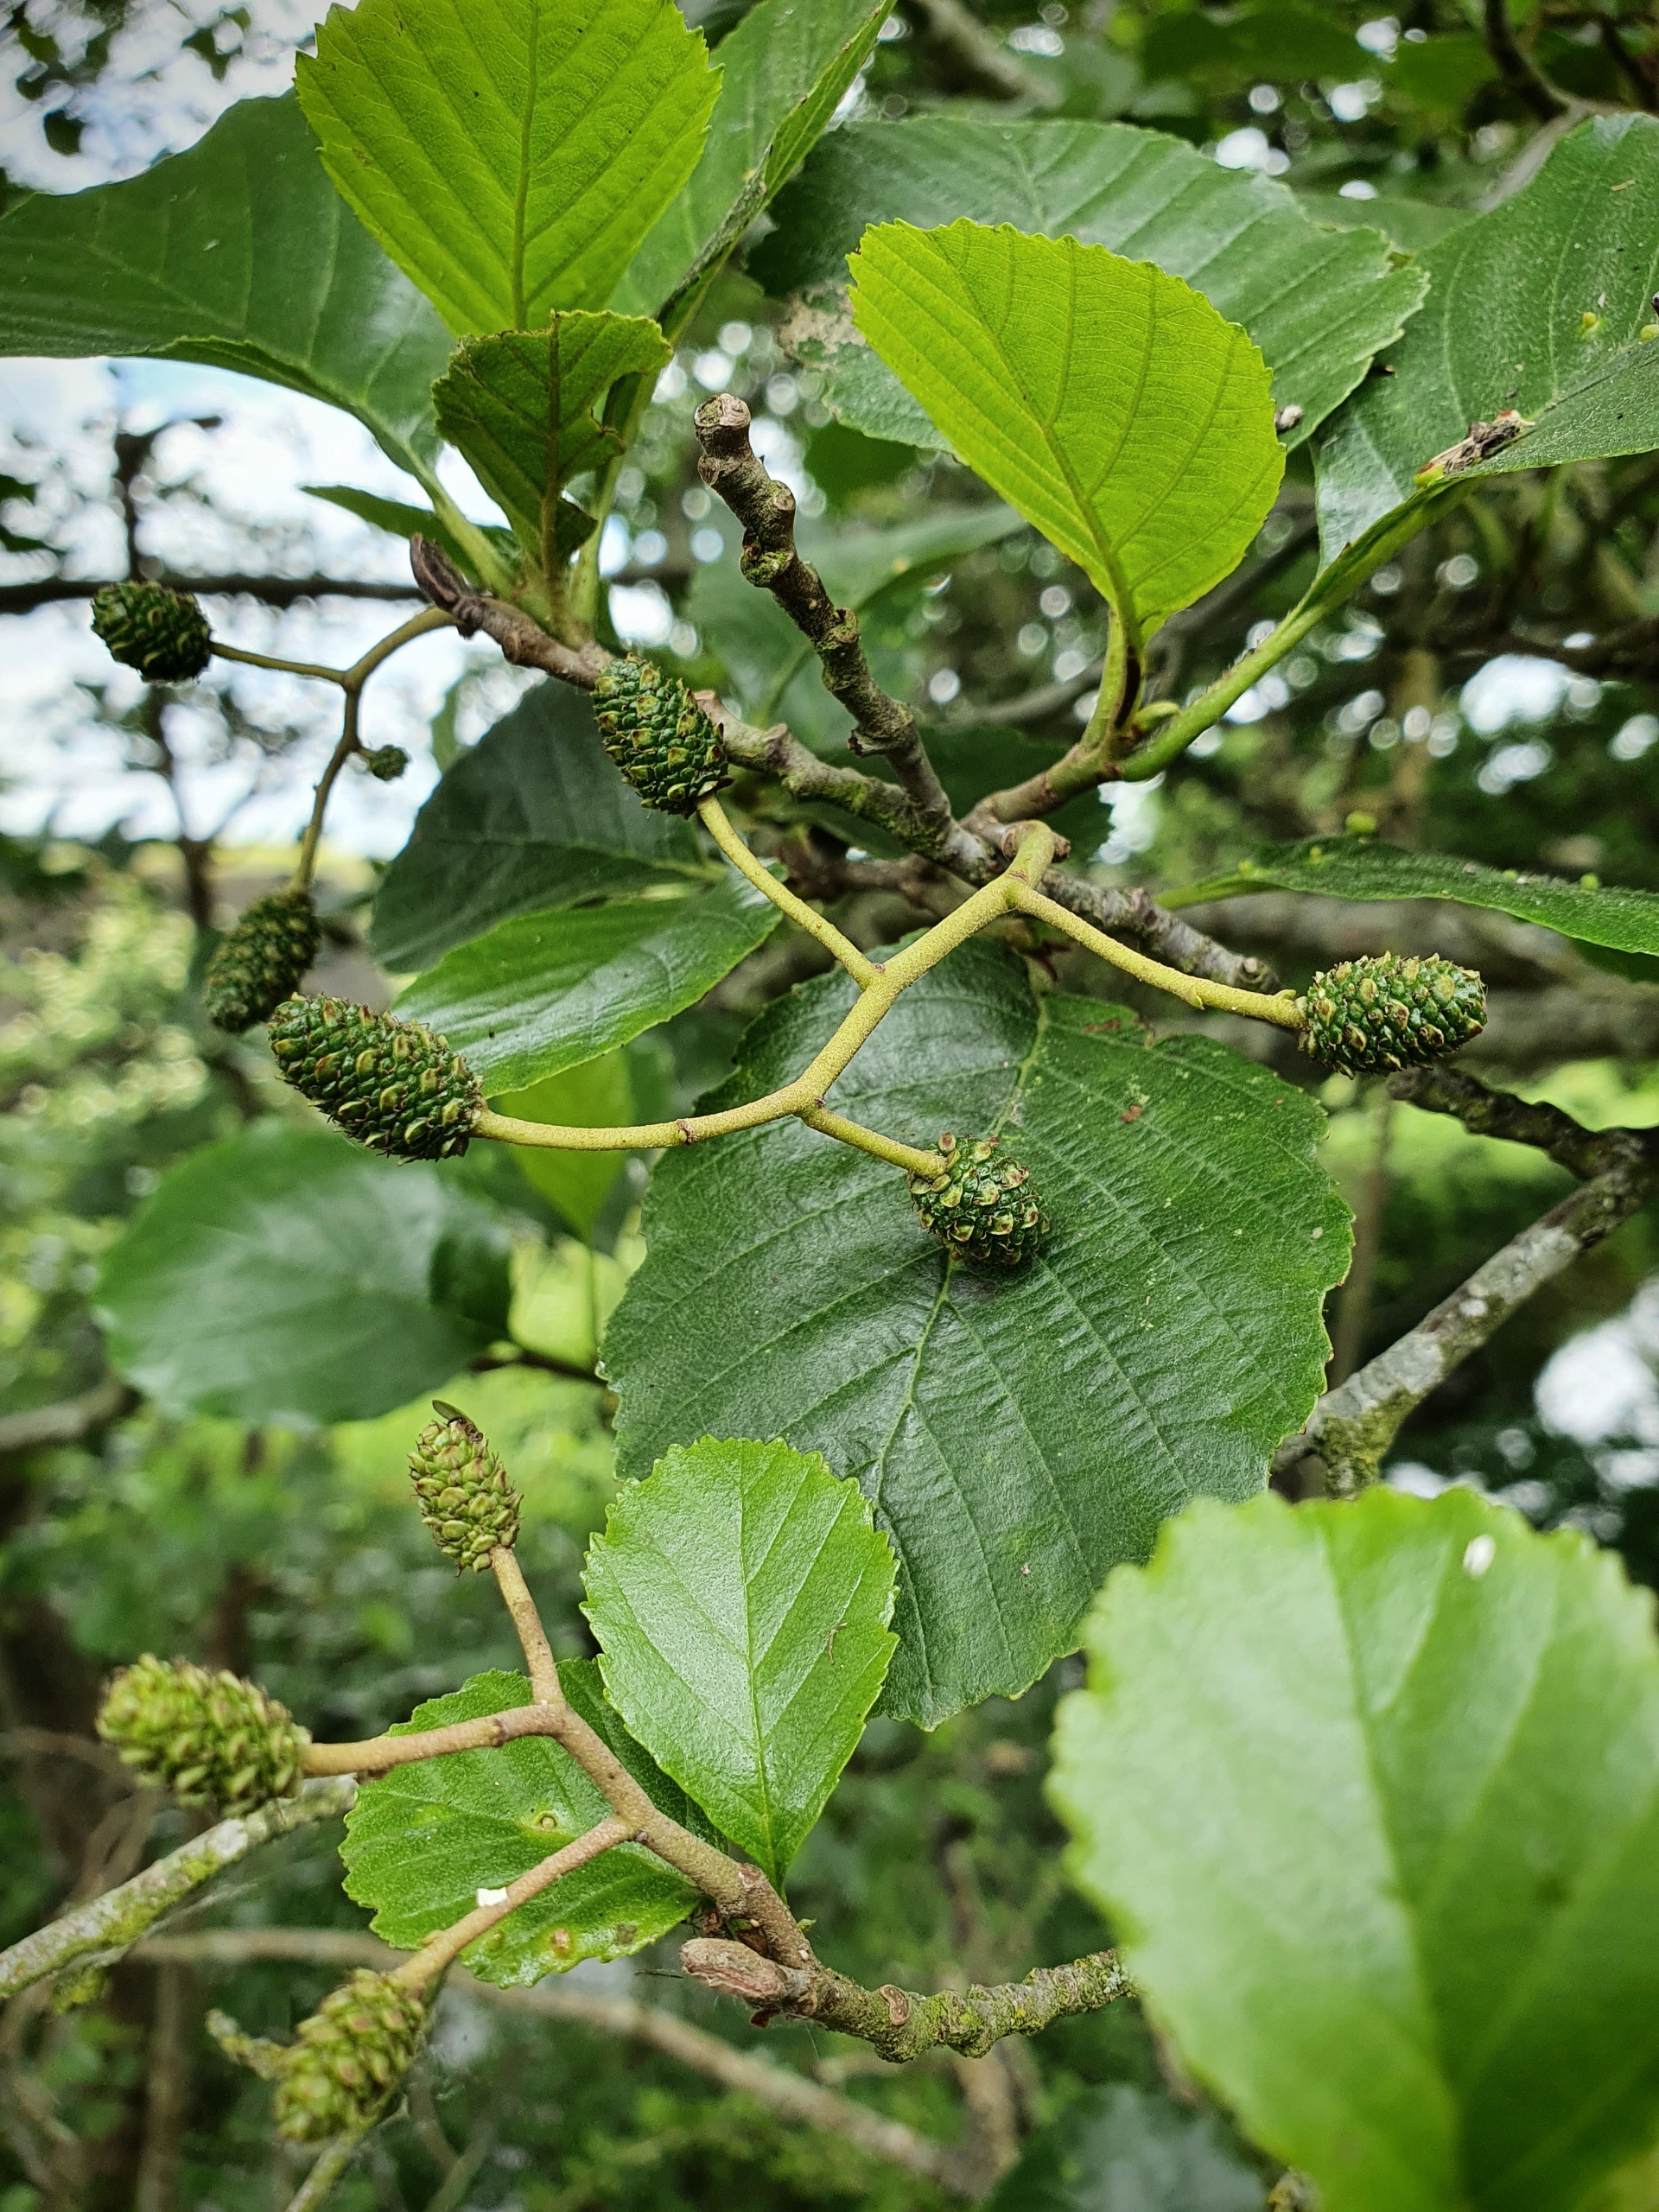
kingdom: Plantae
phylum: Tracheophyta
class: Magnoliopsida
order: Fagales
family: Betulaceae
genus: Alnus
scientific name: Alnus glutinosa
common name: Rød-el
